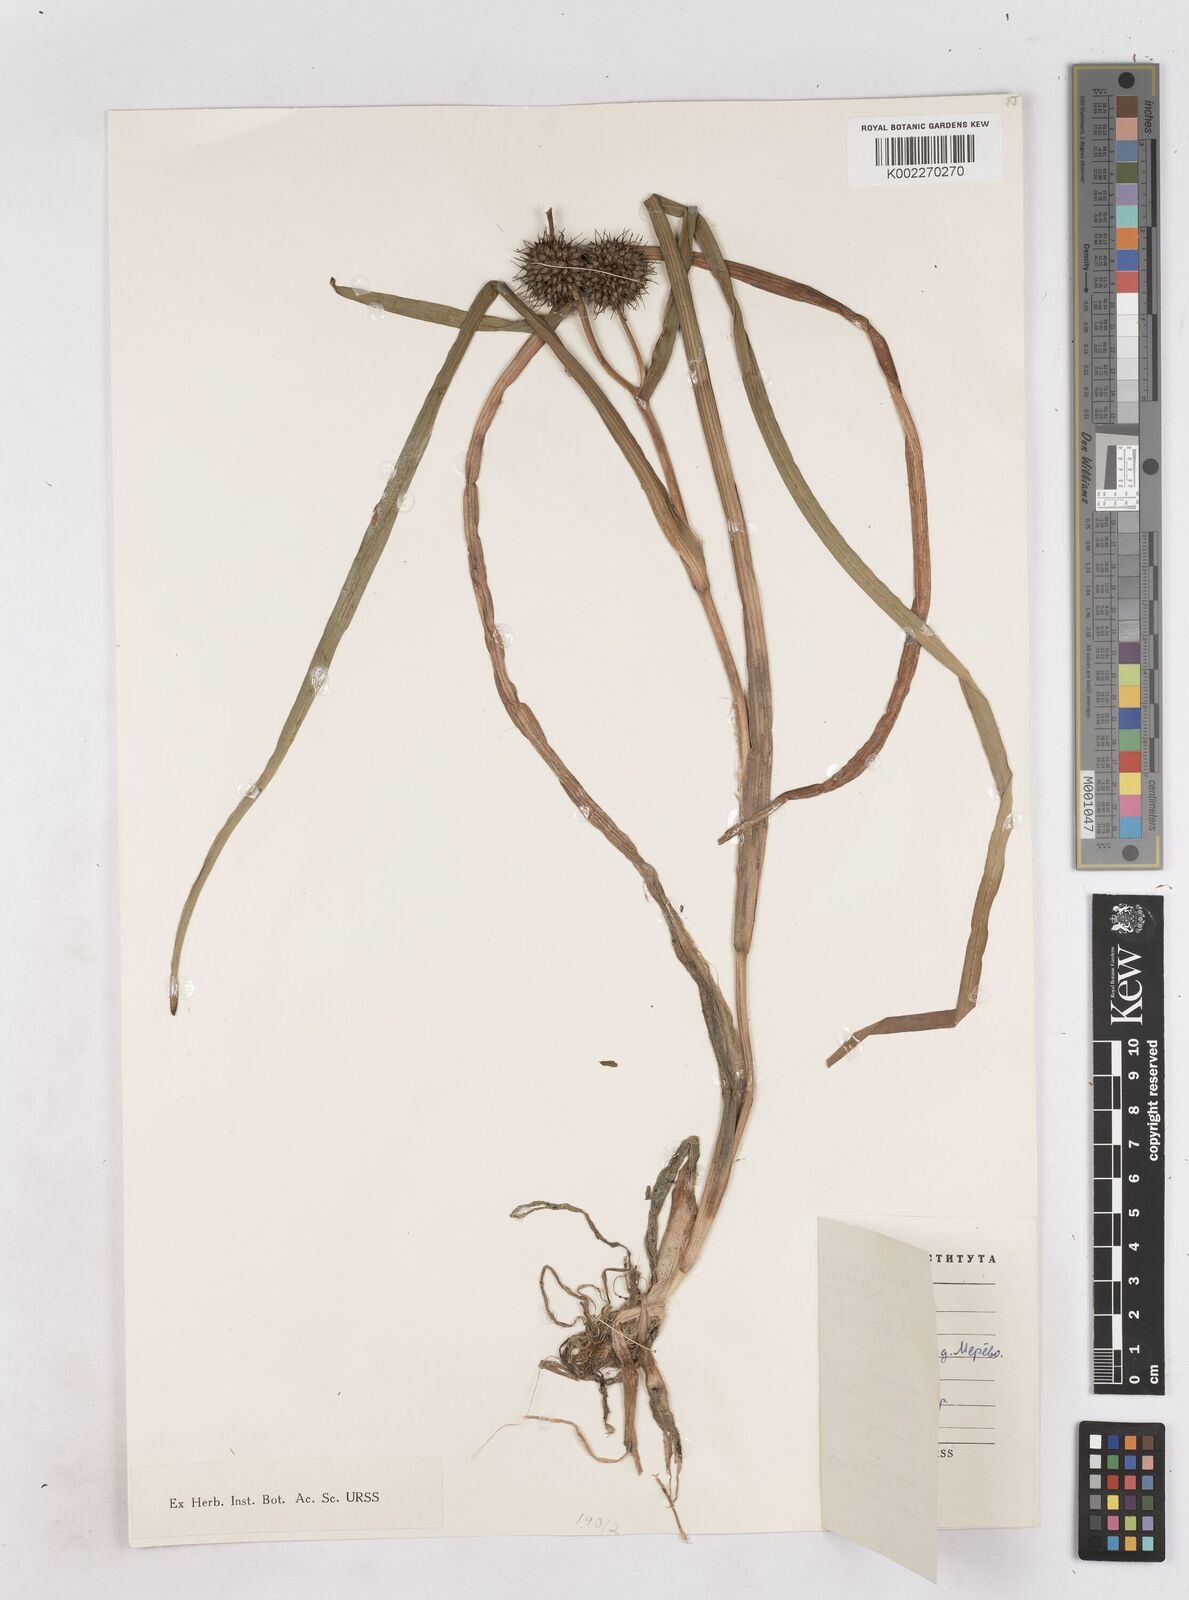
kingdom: Plantae
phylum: Tracheophyta
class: Liliopsida
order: Poales
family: Typhaceae
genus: Sparganium
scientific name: Sparganium emersum
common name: Unbranched bur-reed
